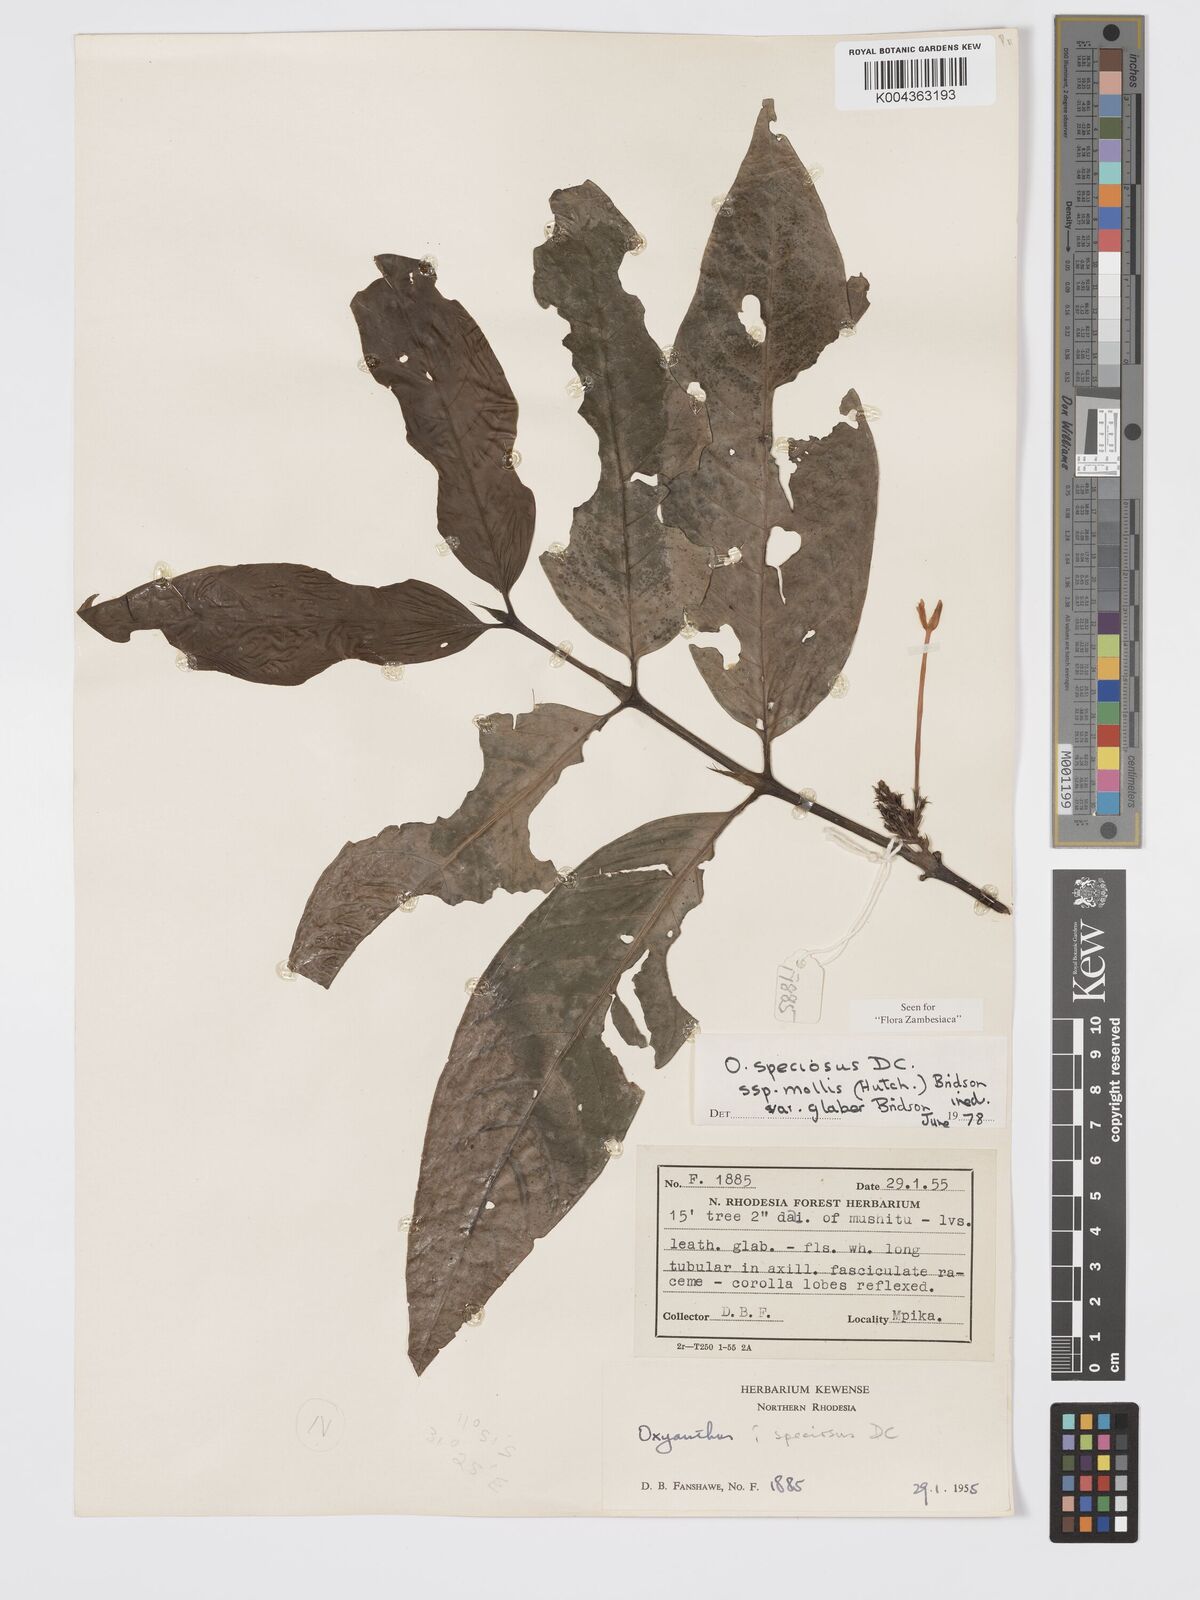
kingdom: Plantae
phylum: Tracheophyta
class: Magnoliopsida
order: Gentianales
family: Rubiaceae
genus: Oxyanthus
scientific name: Oxyanthus speciosus
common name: Whipstick loquat
